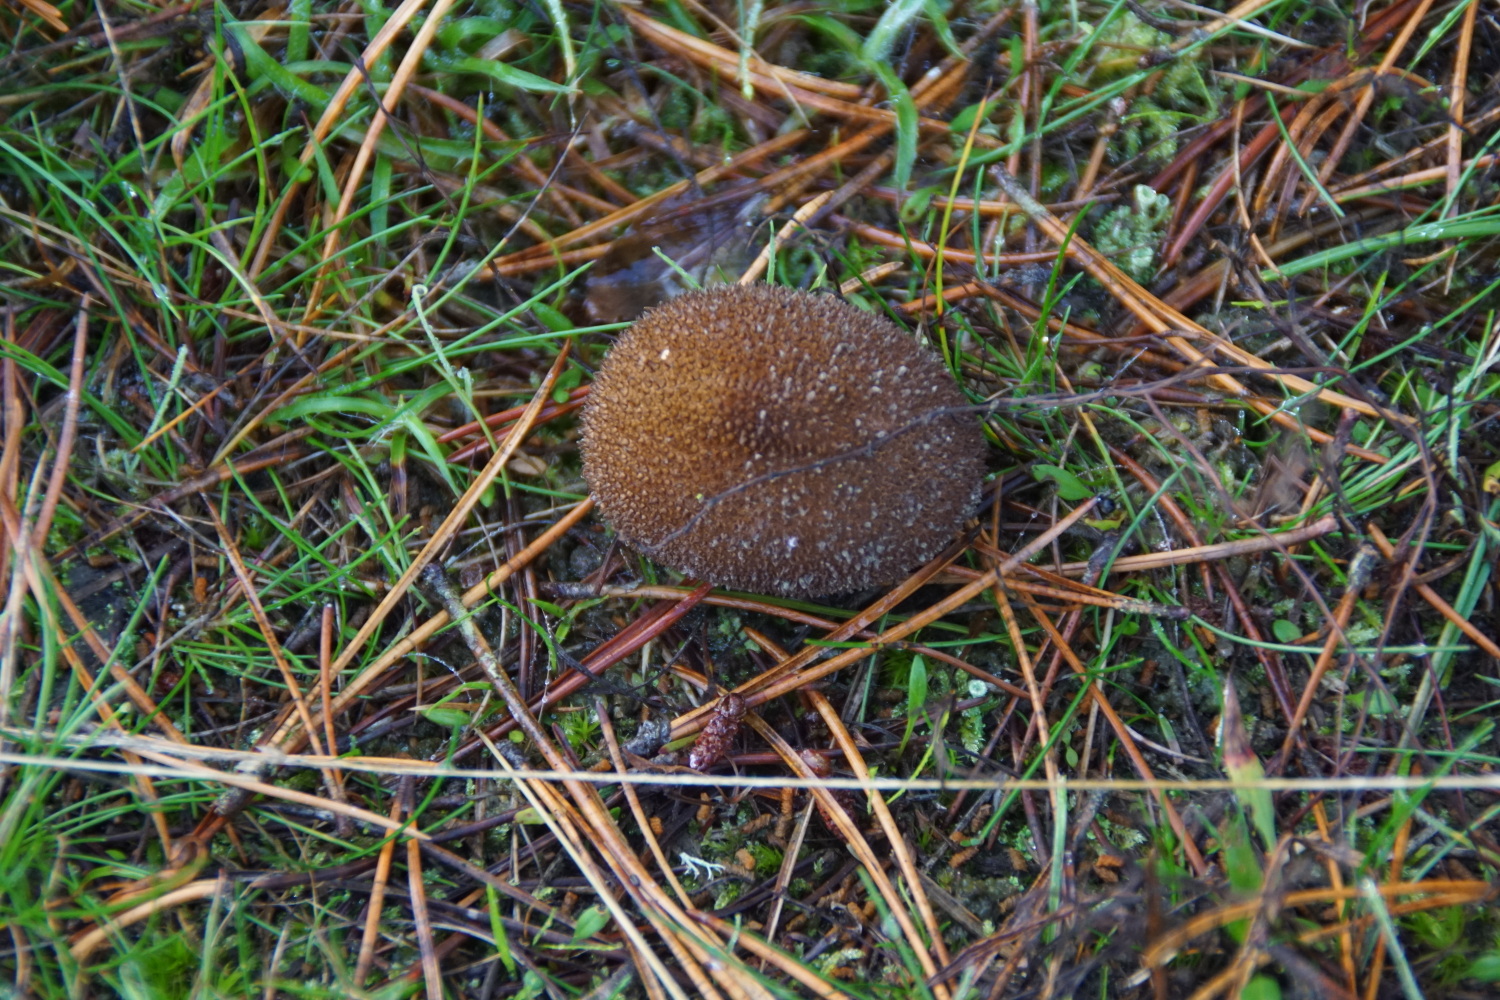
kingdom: Fungi
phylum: Basidiomycota
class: Agaricomycetes
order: Agaricales
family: Lycoperdaceae
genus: Lycoperdon
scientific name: Lycoperdon nigrescens
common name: sortagtig støvbold
